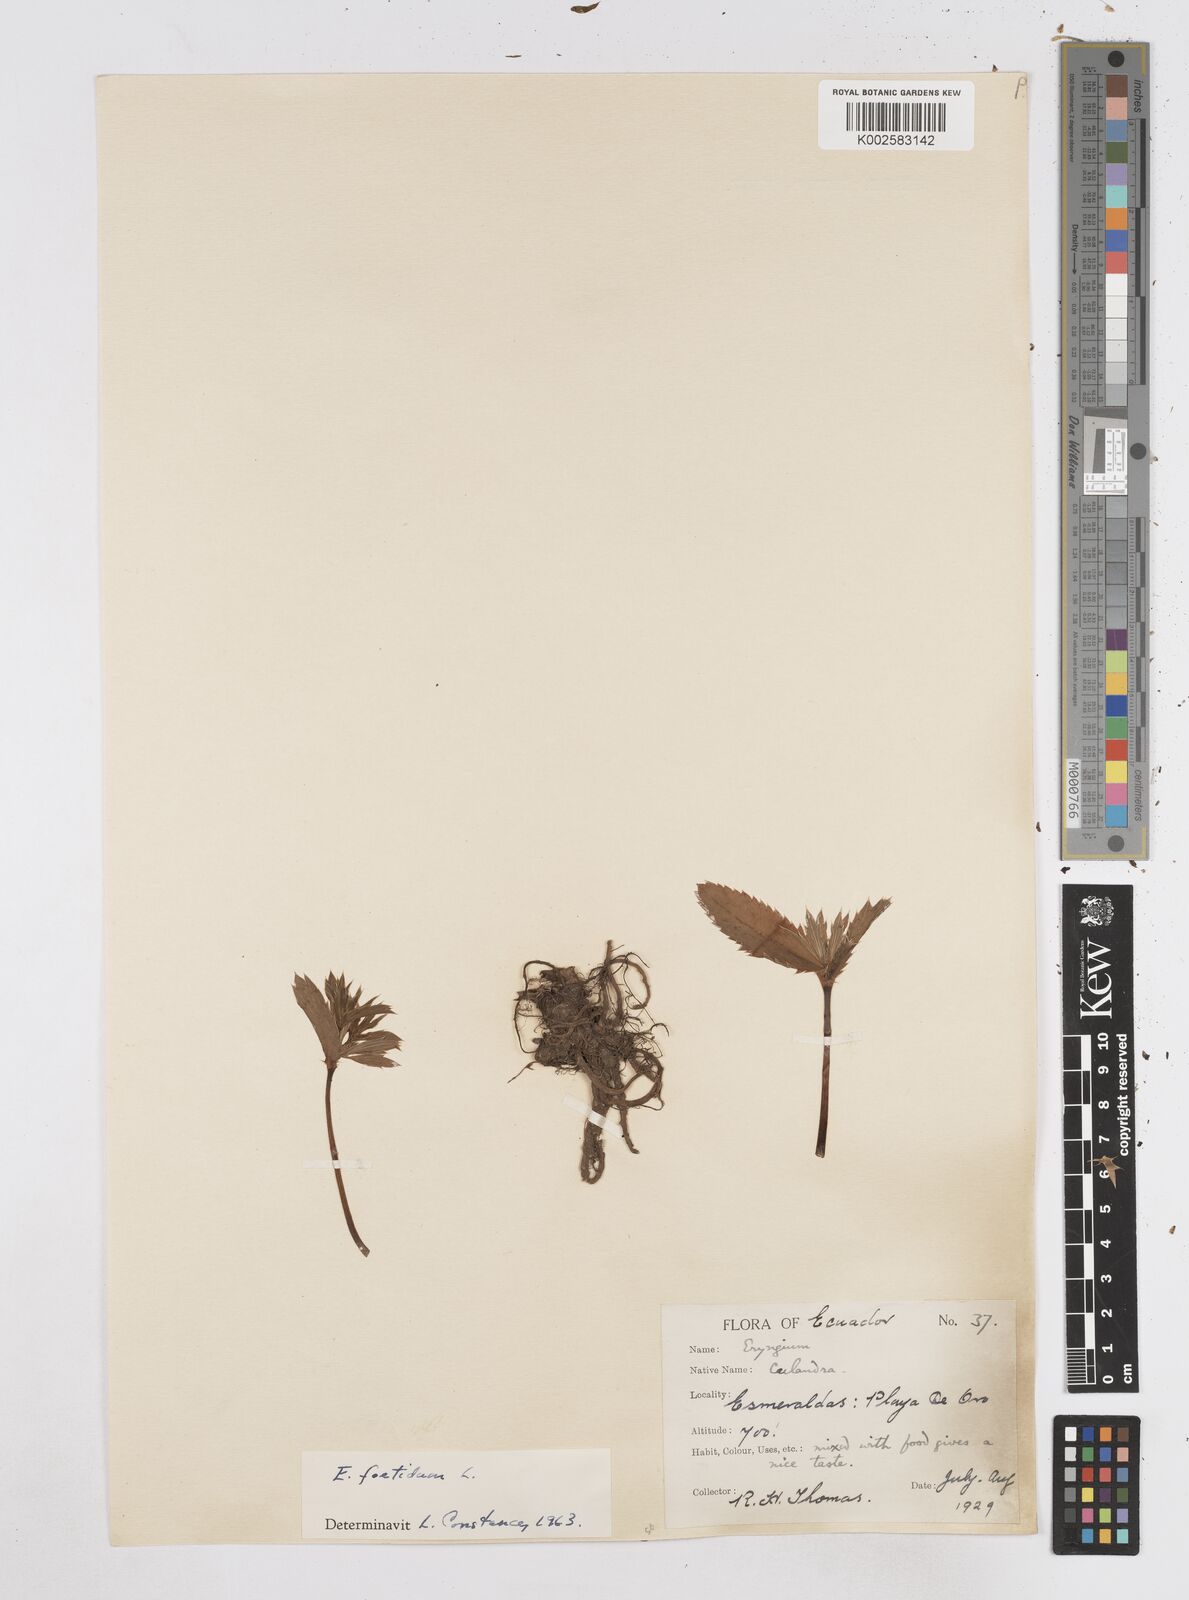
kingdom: Plantae
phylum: Tracheophyta
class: Magnoliopsida
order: Apiales
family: Apiaceae
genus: Eryngium
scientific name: Eryngium foetidum
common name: Fitweed
